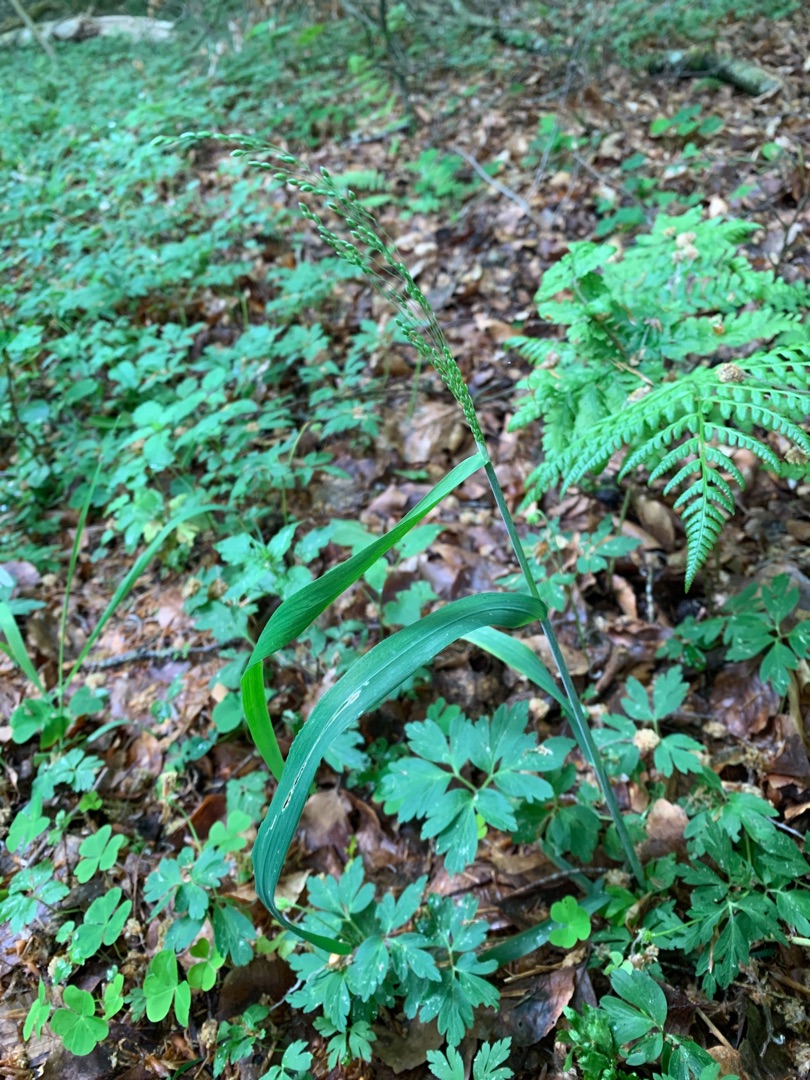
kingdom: Plantae
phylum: Tracheophyta
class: Liliopsida
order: Poales
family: Poaceae
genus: Milium
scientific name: Milium effusum
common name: Miliegræs
